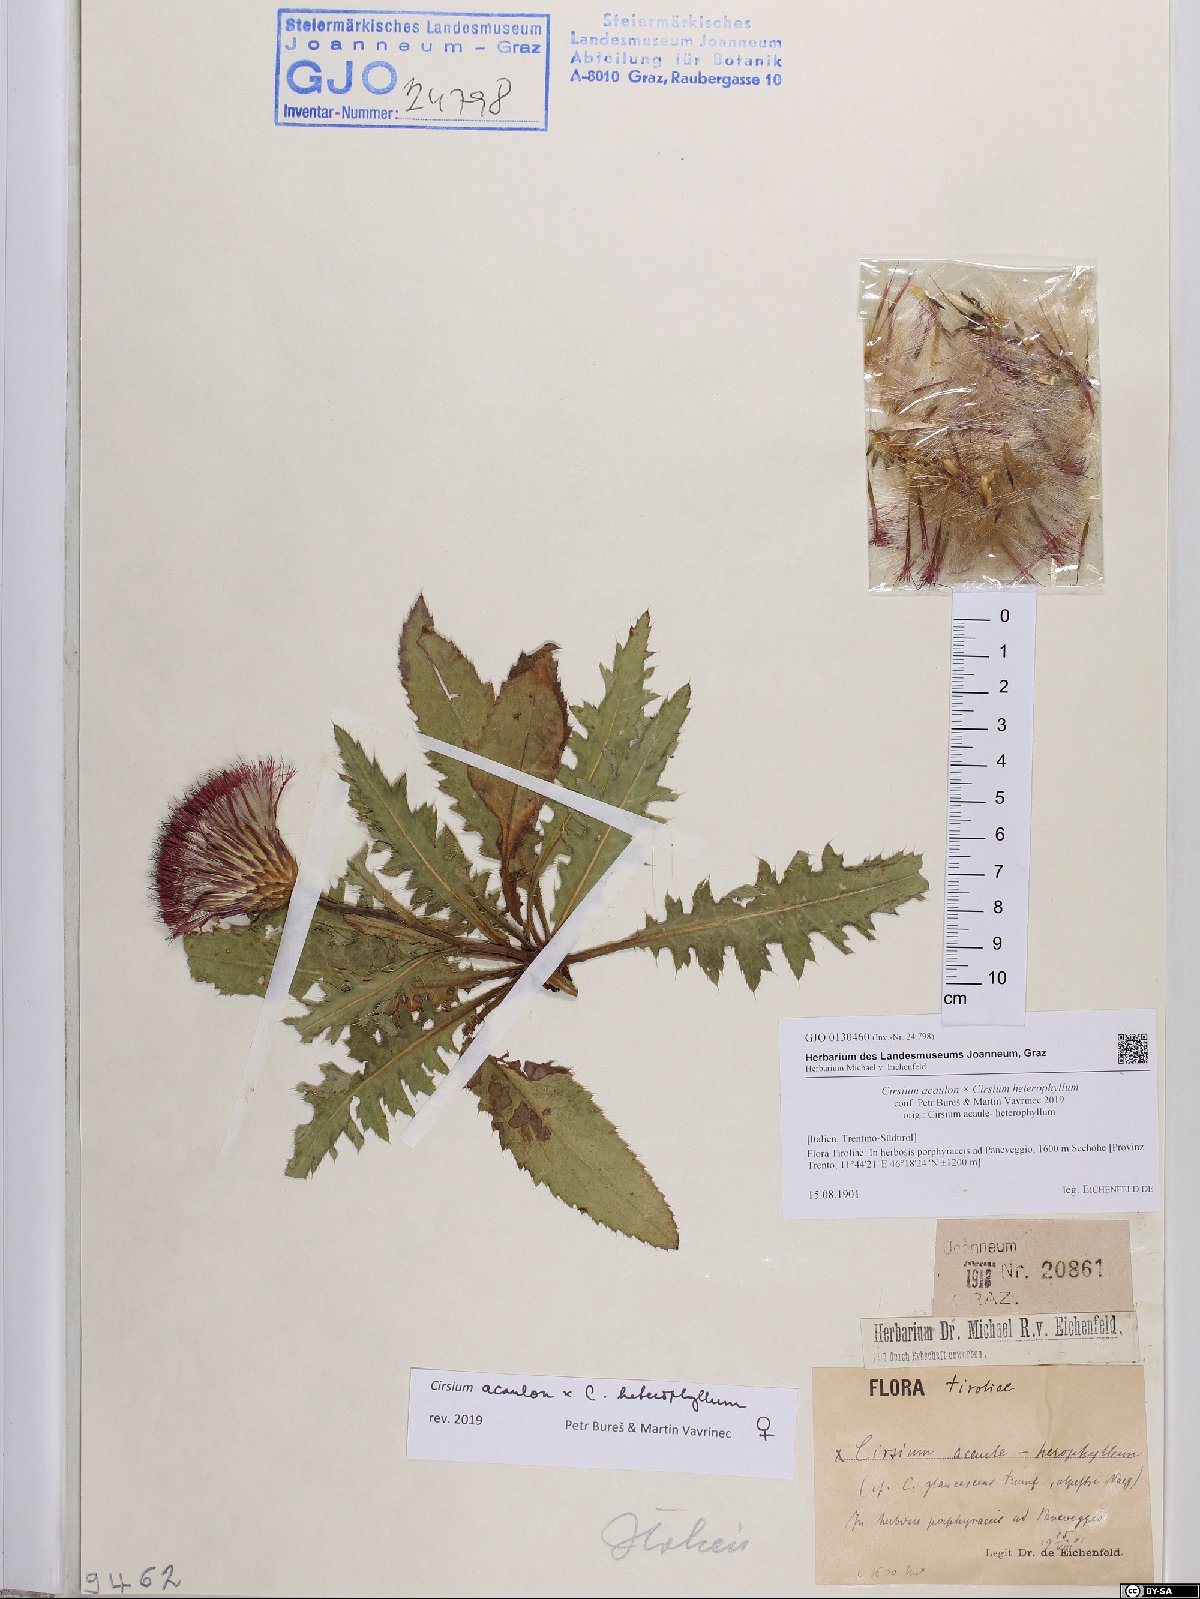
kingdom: Plantae
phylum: Tracheophyta
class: Magnoliopsida
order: Asterales
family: Asteraceae
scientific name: Asteraceae
